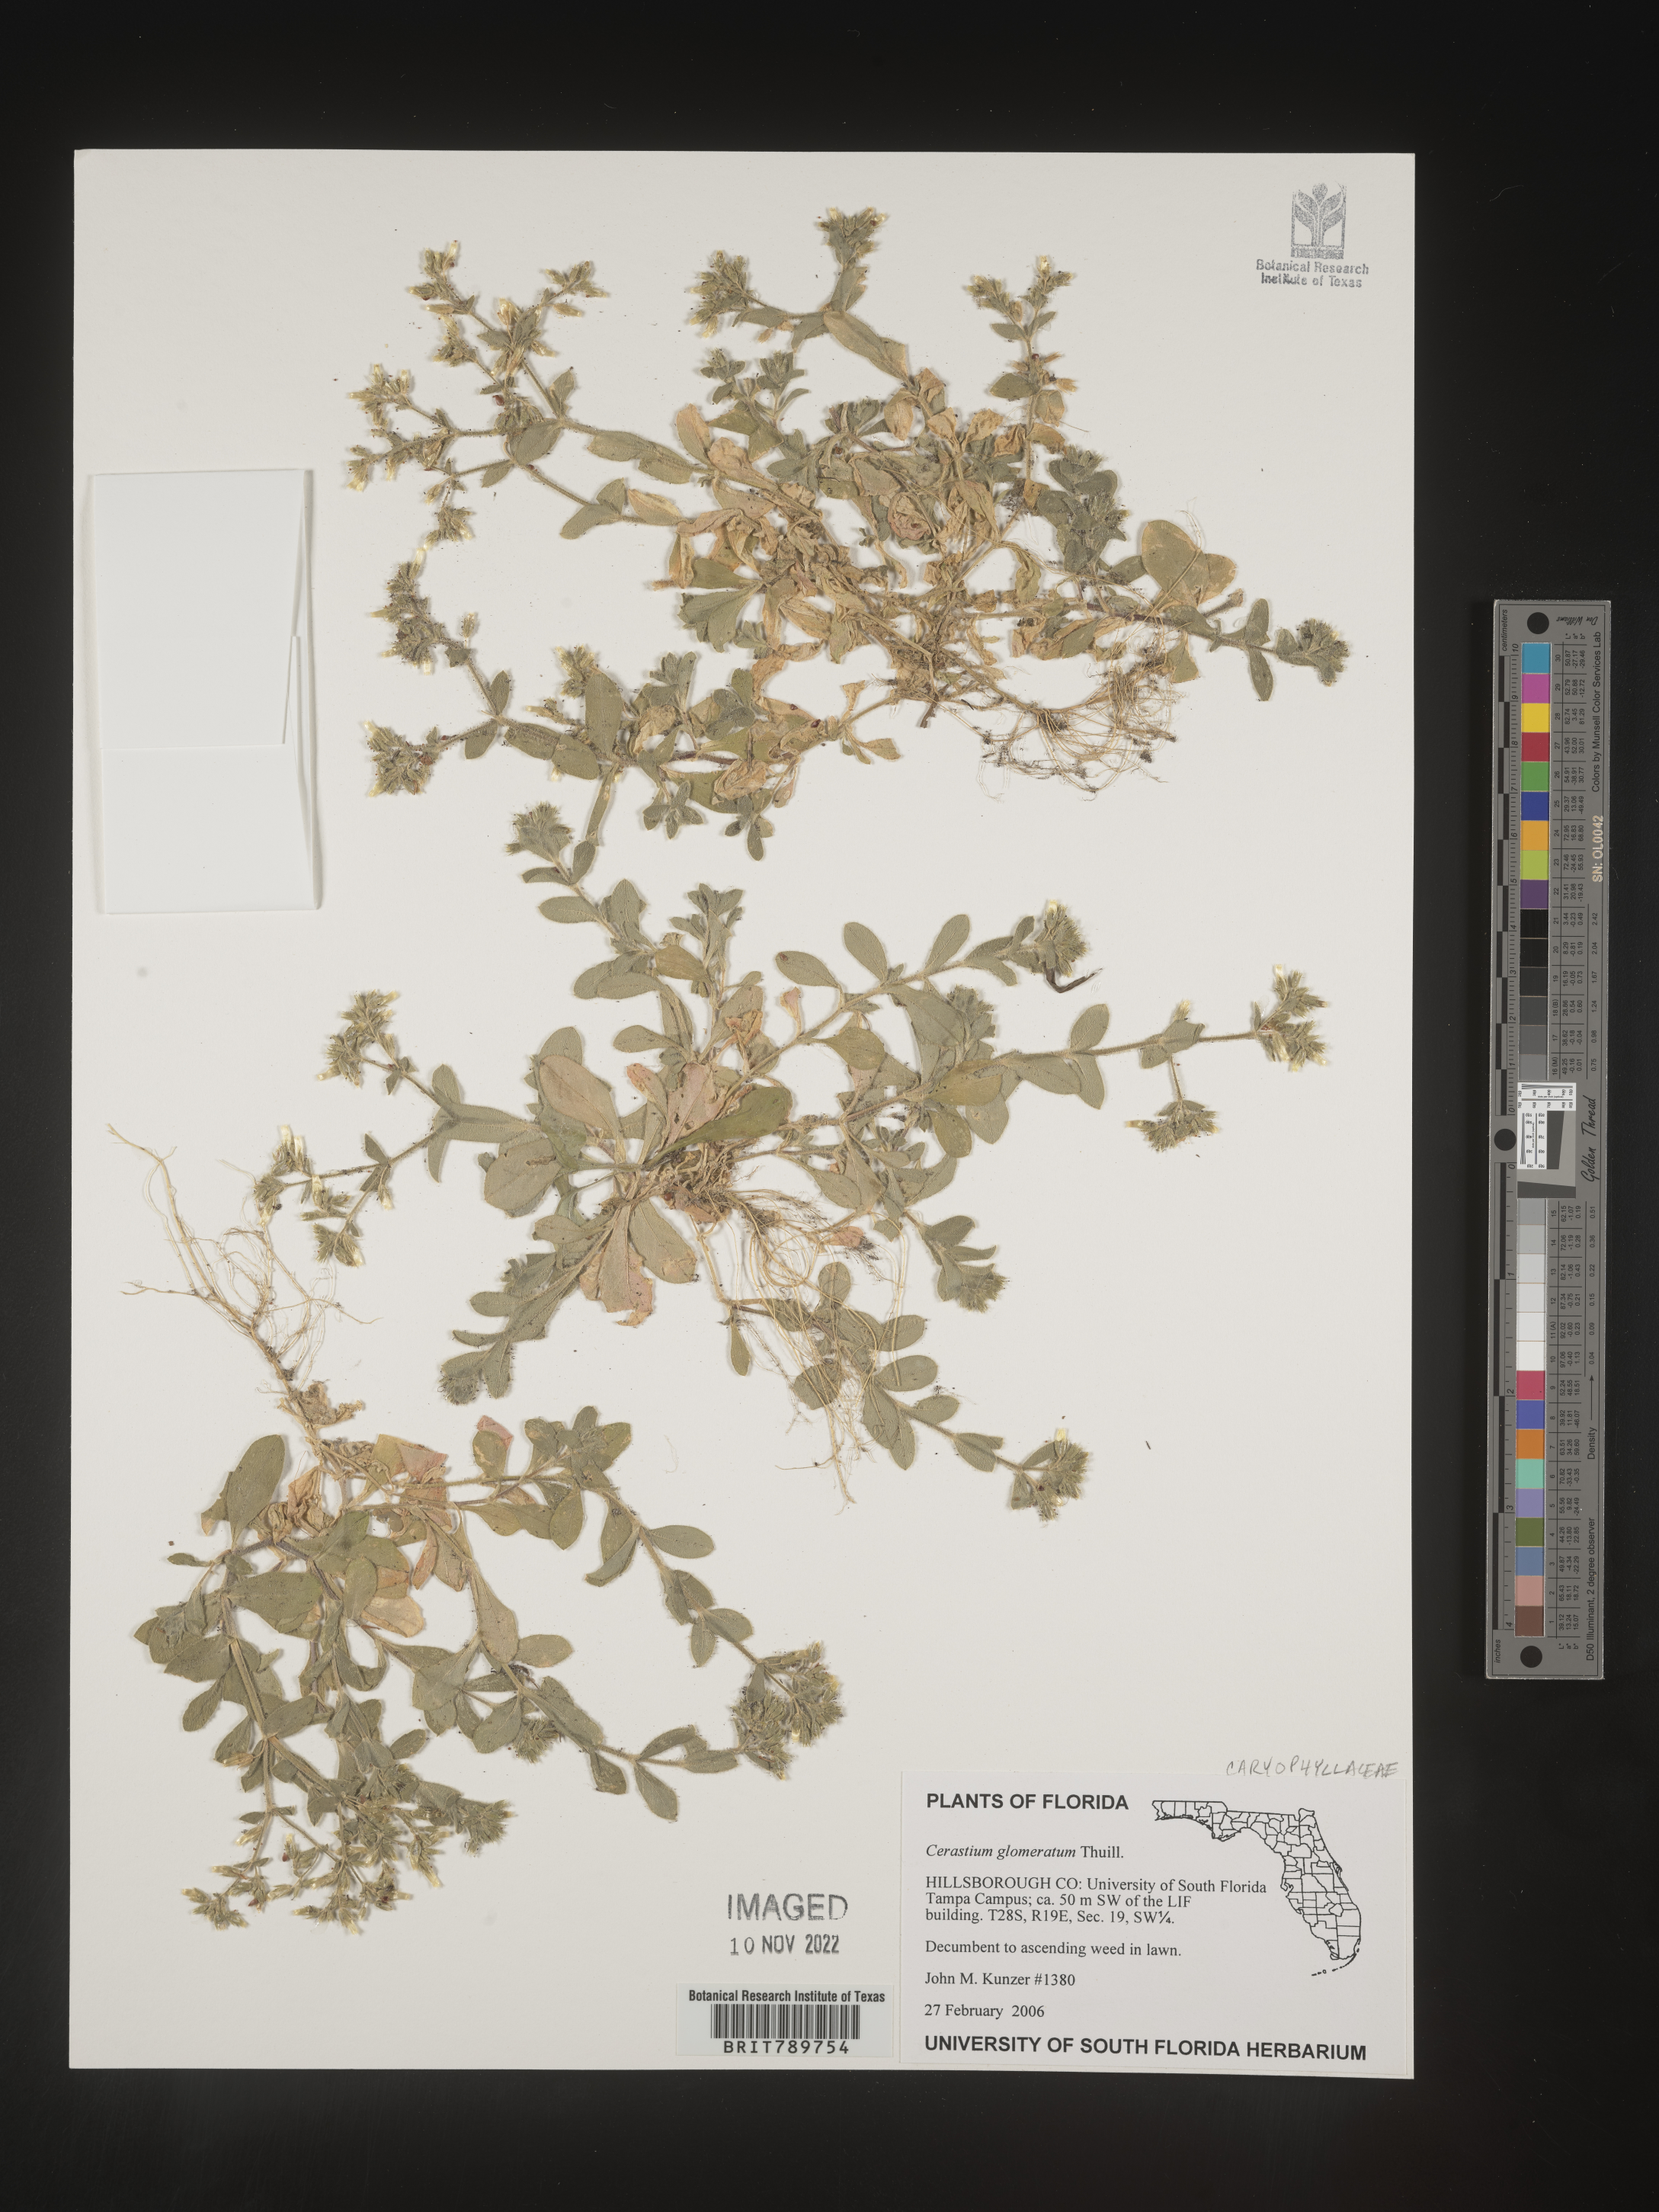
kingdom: Plantae
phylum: Tracheophyta
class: Magnoliopsida
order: Caryophyllales
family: Caryophyllaceae
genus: Cerastium
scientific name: Cerastium glomeratum
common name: Sticky chickweed
